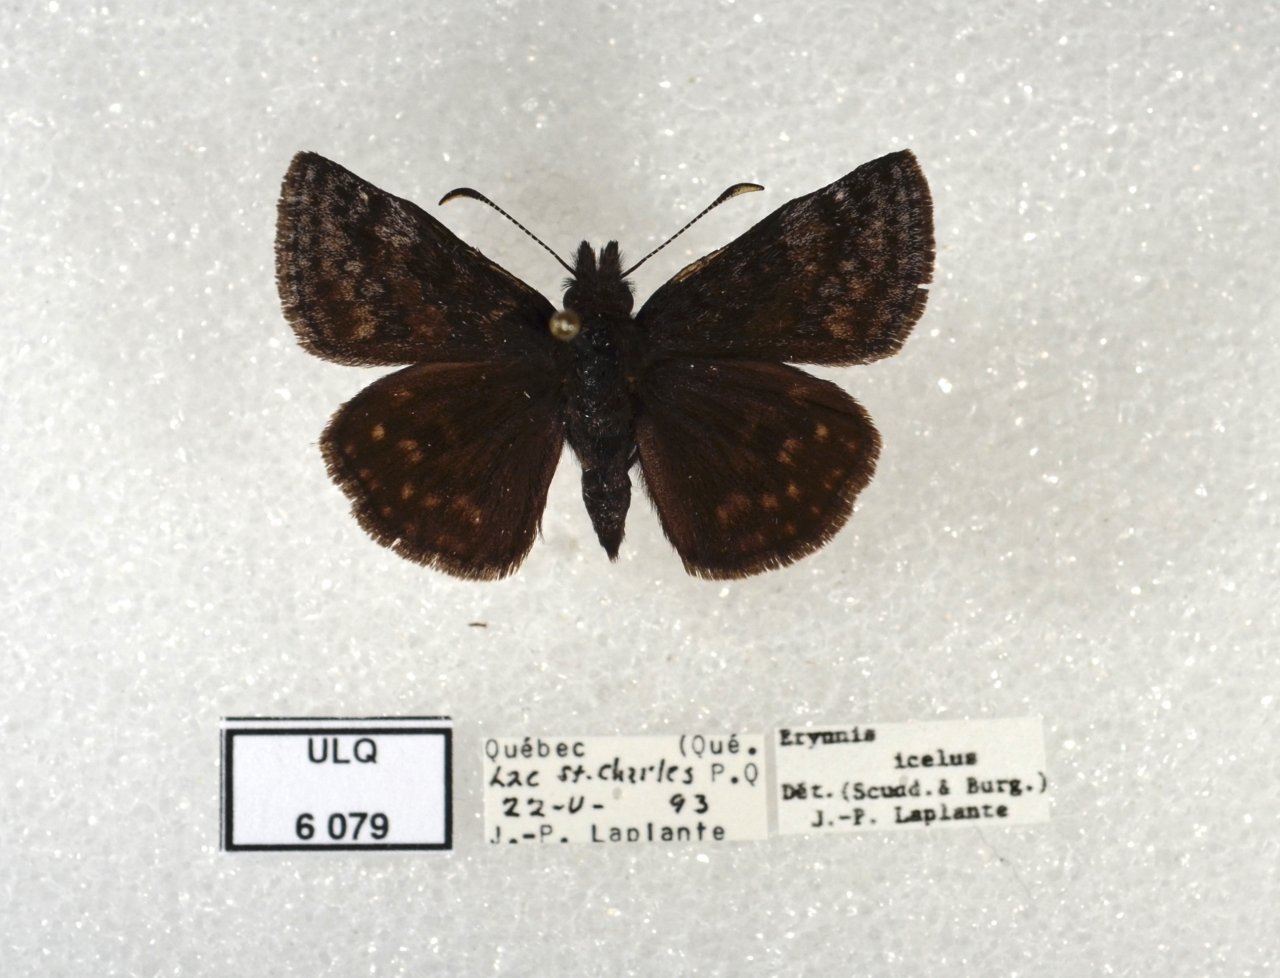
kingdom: Animalia
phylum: Arthropoda
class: Insecta
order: Lepidoptera
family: Hesperiidae
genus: Erynnis
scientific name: Erynnis icelus
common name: Dreamy Duskywing
